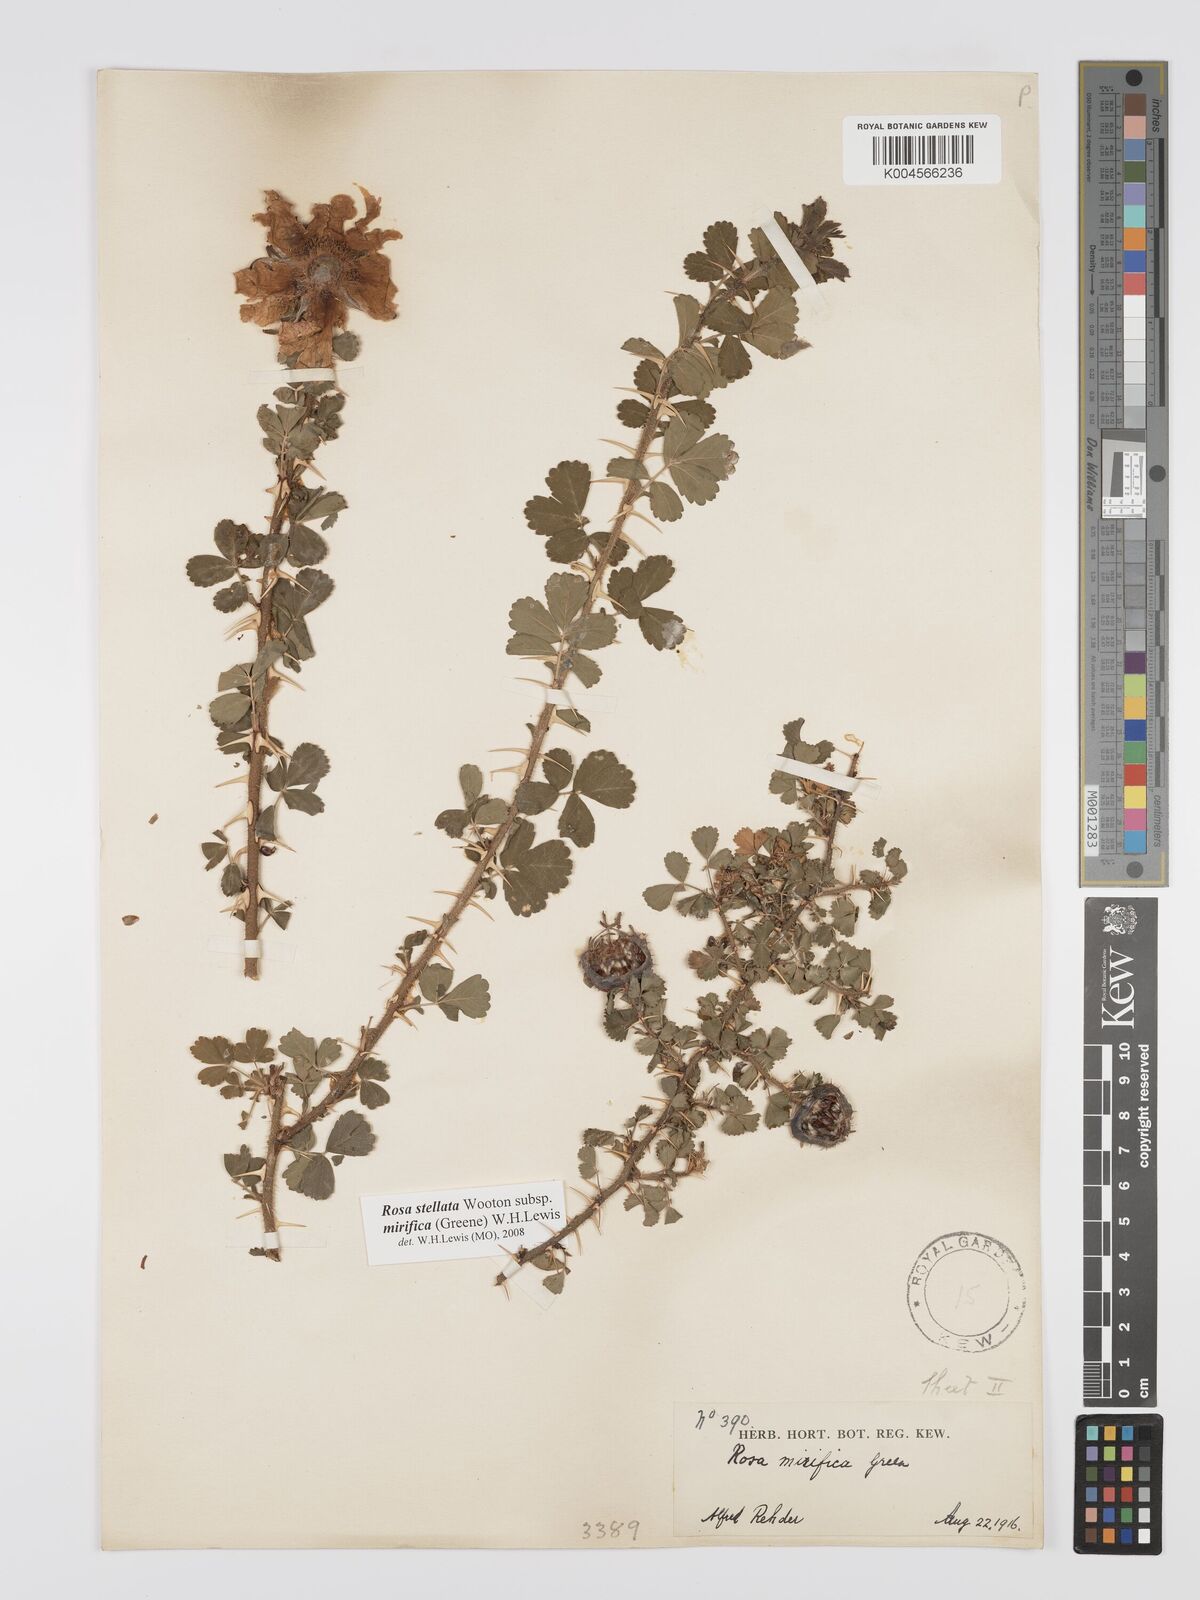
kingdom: Plantae
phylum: Tracheophyta
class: Magnoliopsida
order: Rosales
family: Rosaceae
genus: Rosa
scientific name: Rosa stellata
